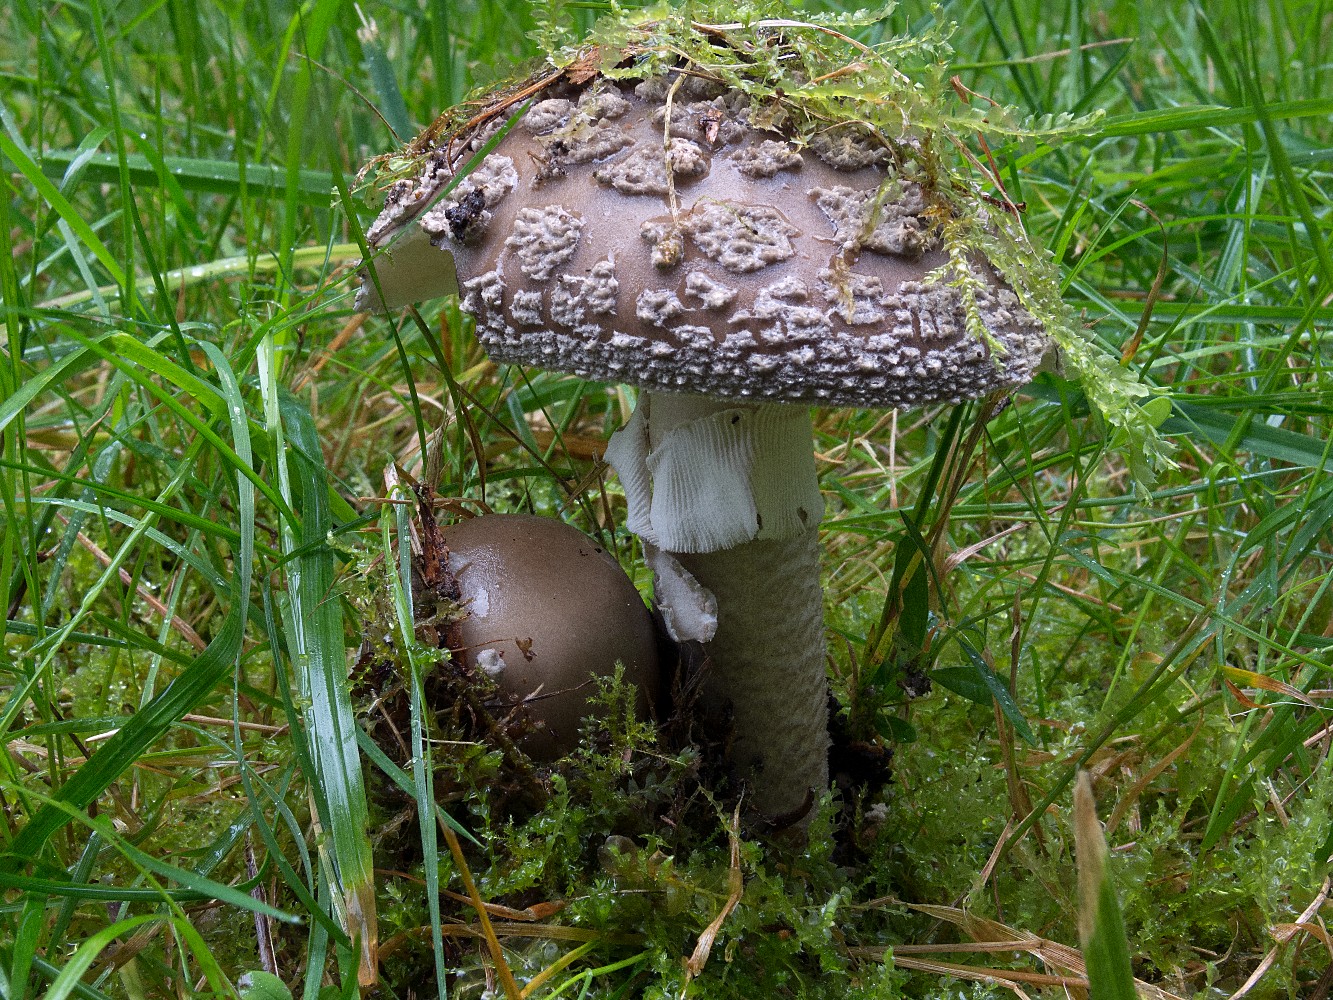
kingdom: Fungi
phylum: Basidiomycota
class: Agaricomycetes
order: Agaricales
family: Amanitaceae
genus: Amanita
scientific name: Amanita
